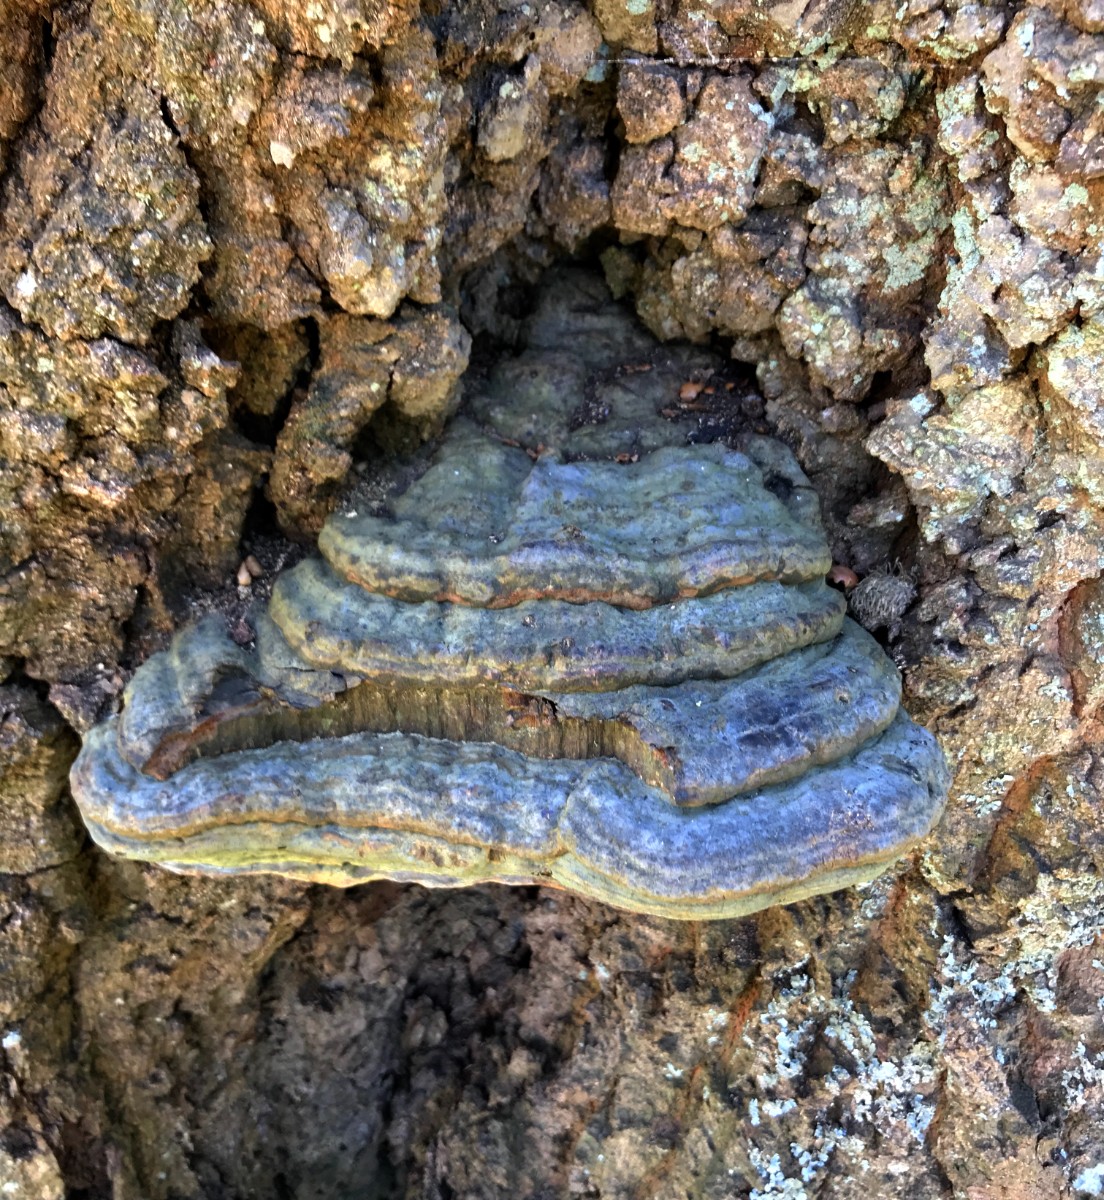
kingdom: Fungi
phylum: Basidiomycota
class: Agaricomycetes
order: Polyporales
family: Polyporaceae
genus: Ganoderma
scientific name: Ganoderma pfeifferi
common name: kobberrød lakporesvamp
